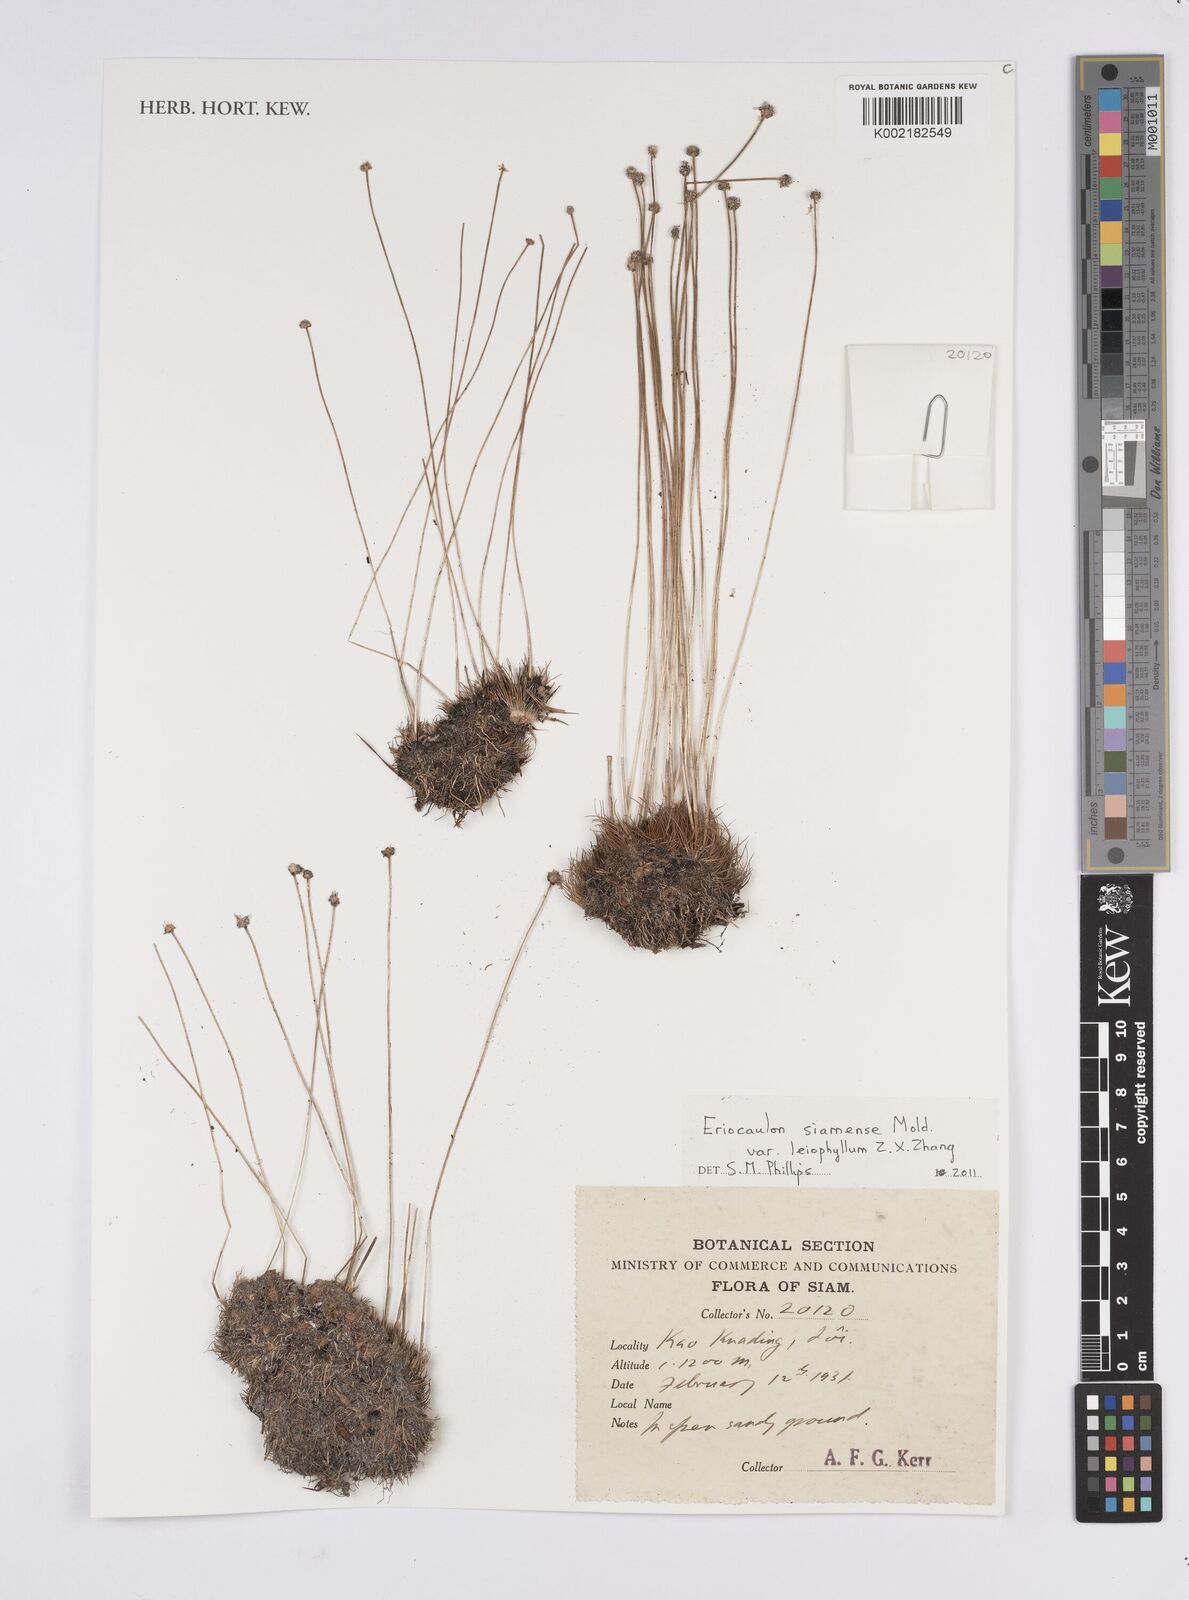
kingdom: Plantae
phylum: Tracheophyta
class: Liliopsida
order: Poales
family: Eriocaulaceae
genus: Eriocaulon
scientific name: Eriocaulon siamense
